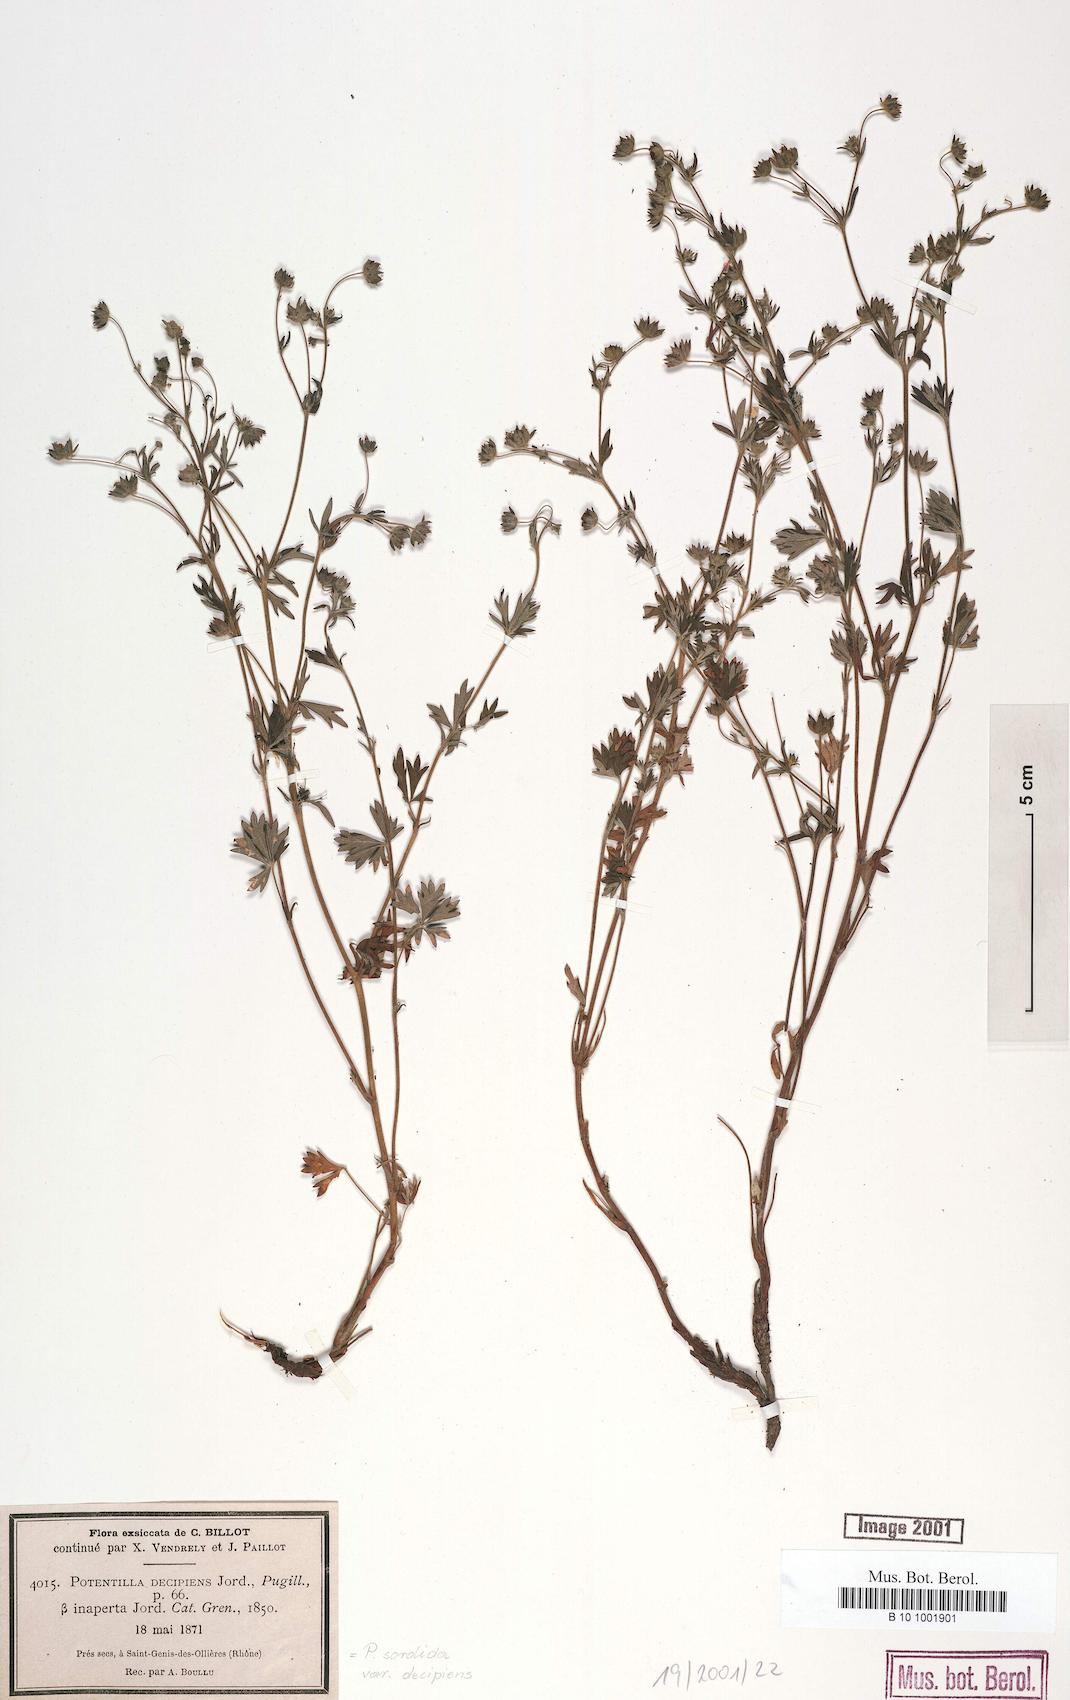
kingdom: Plantae
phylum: Tracheophyta
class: Magnoliopsida
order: Rosales
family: Rosaceae
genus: Potentilla
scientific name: Potentilla sordida
